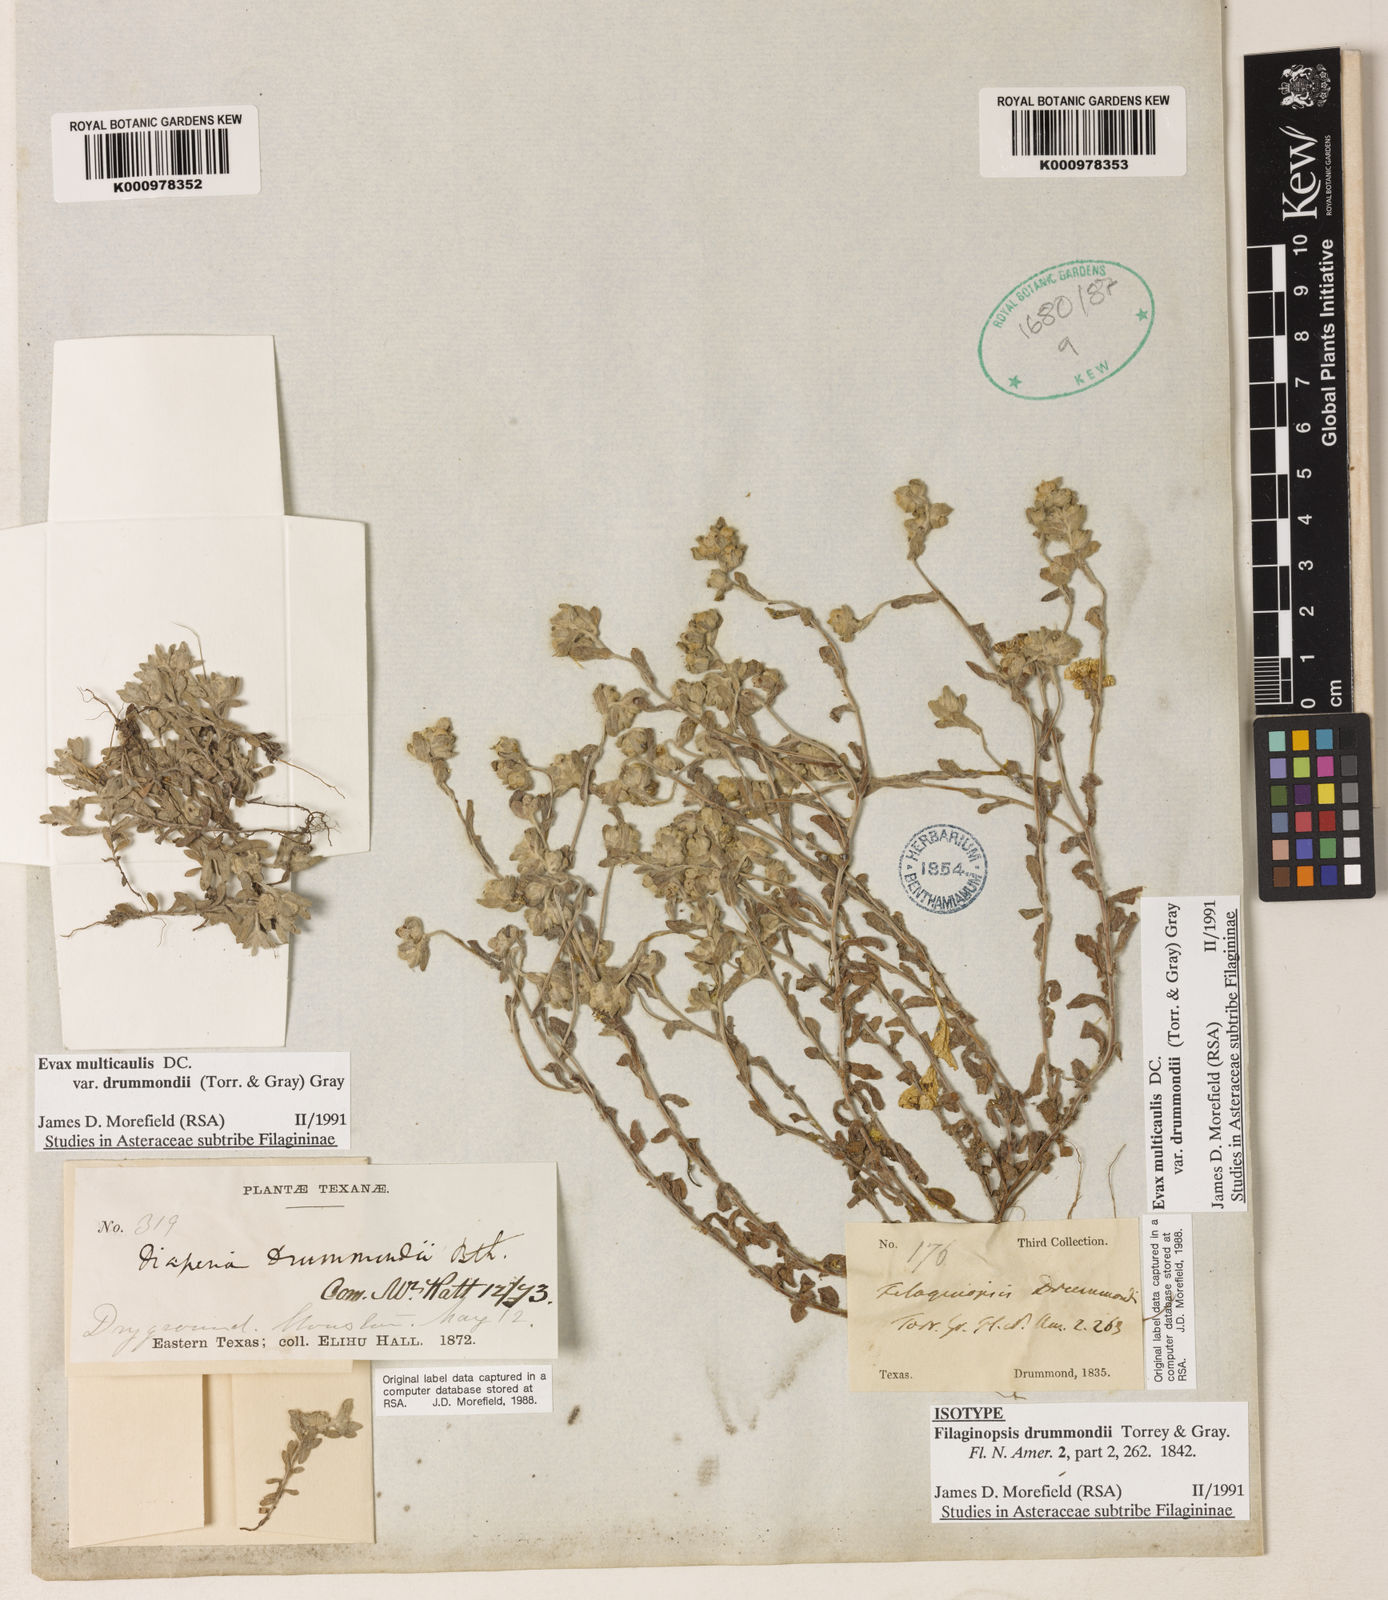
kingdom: Plantae
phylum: Tracheophyta
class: Magnoliopsida
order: Asterales
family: Asteraceae
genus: Diaperia
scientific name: Diaperia verna
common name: Many-stem rabbit-tobacco
